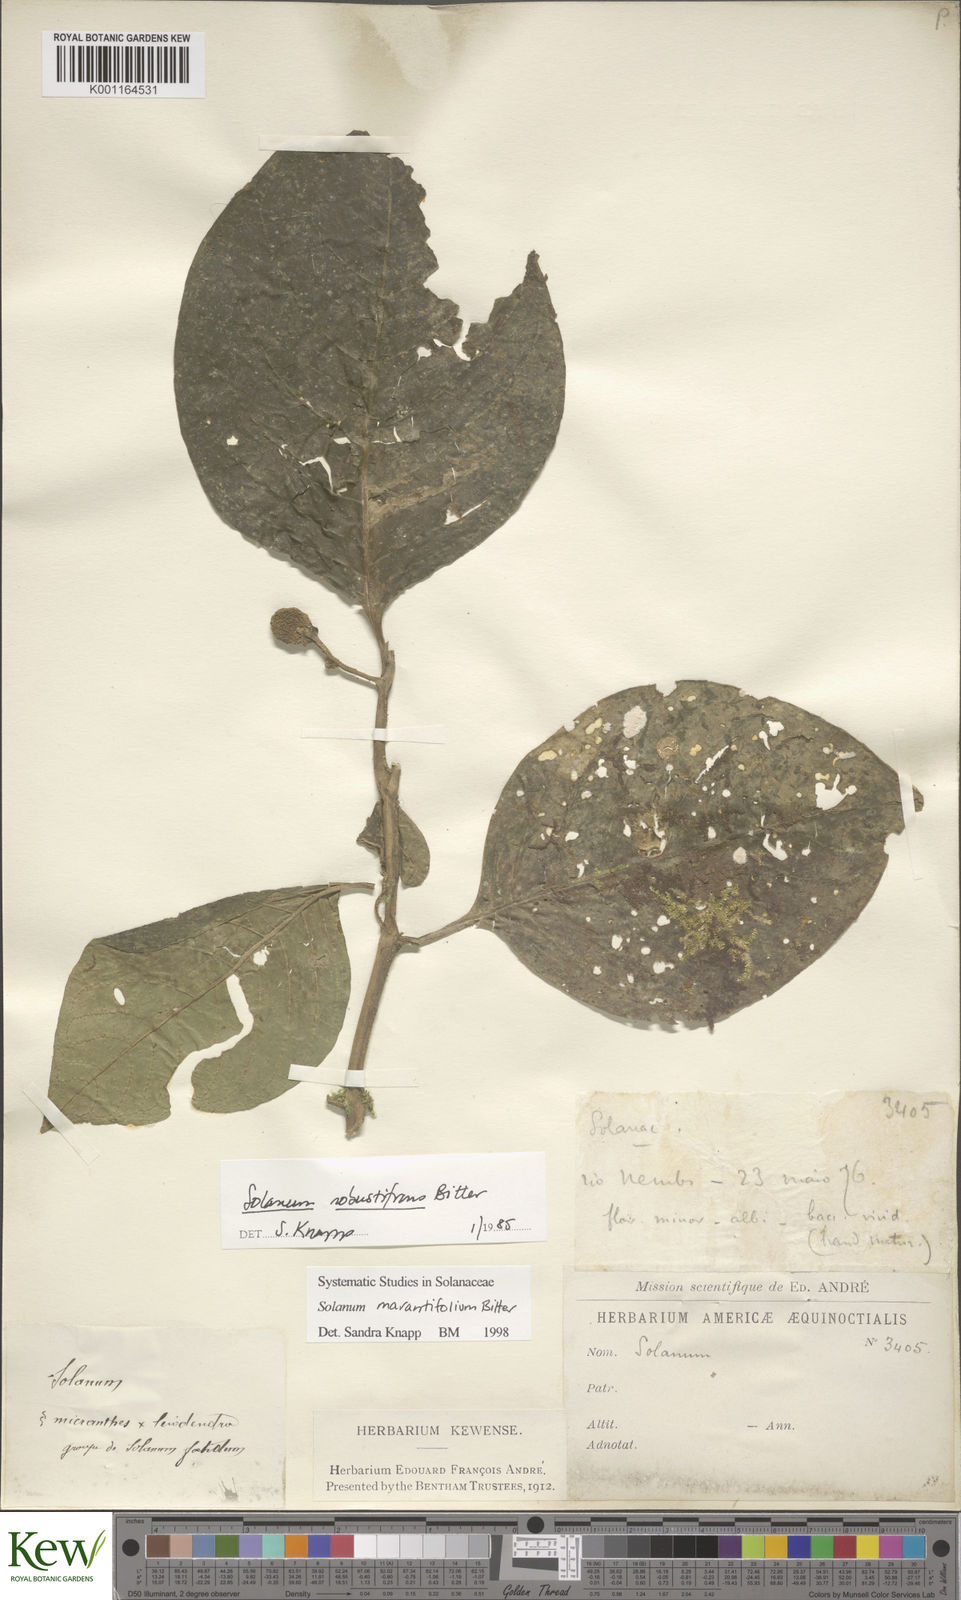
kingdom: Plantae
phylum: Tracheophyta
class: Magnoliopsida
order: Solanales
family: Solanaceae
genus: Solanum
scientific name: Solanum marantifolium
